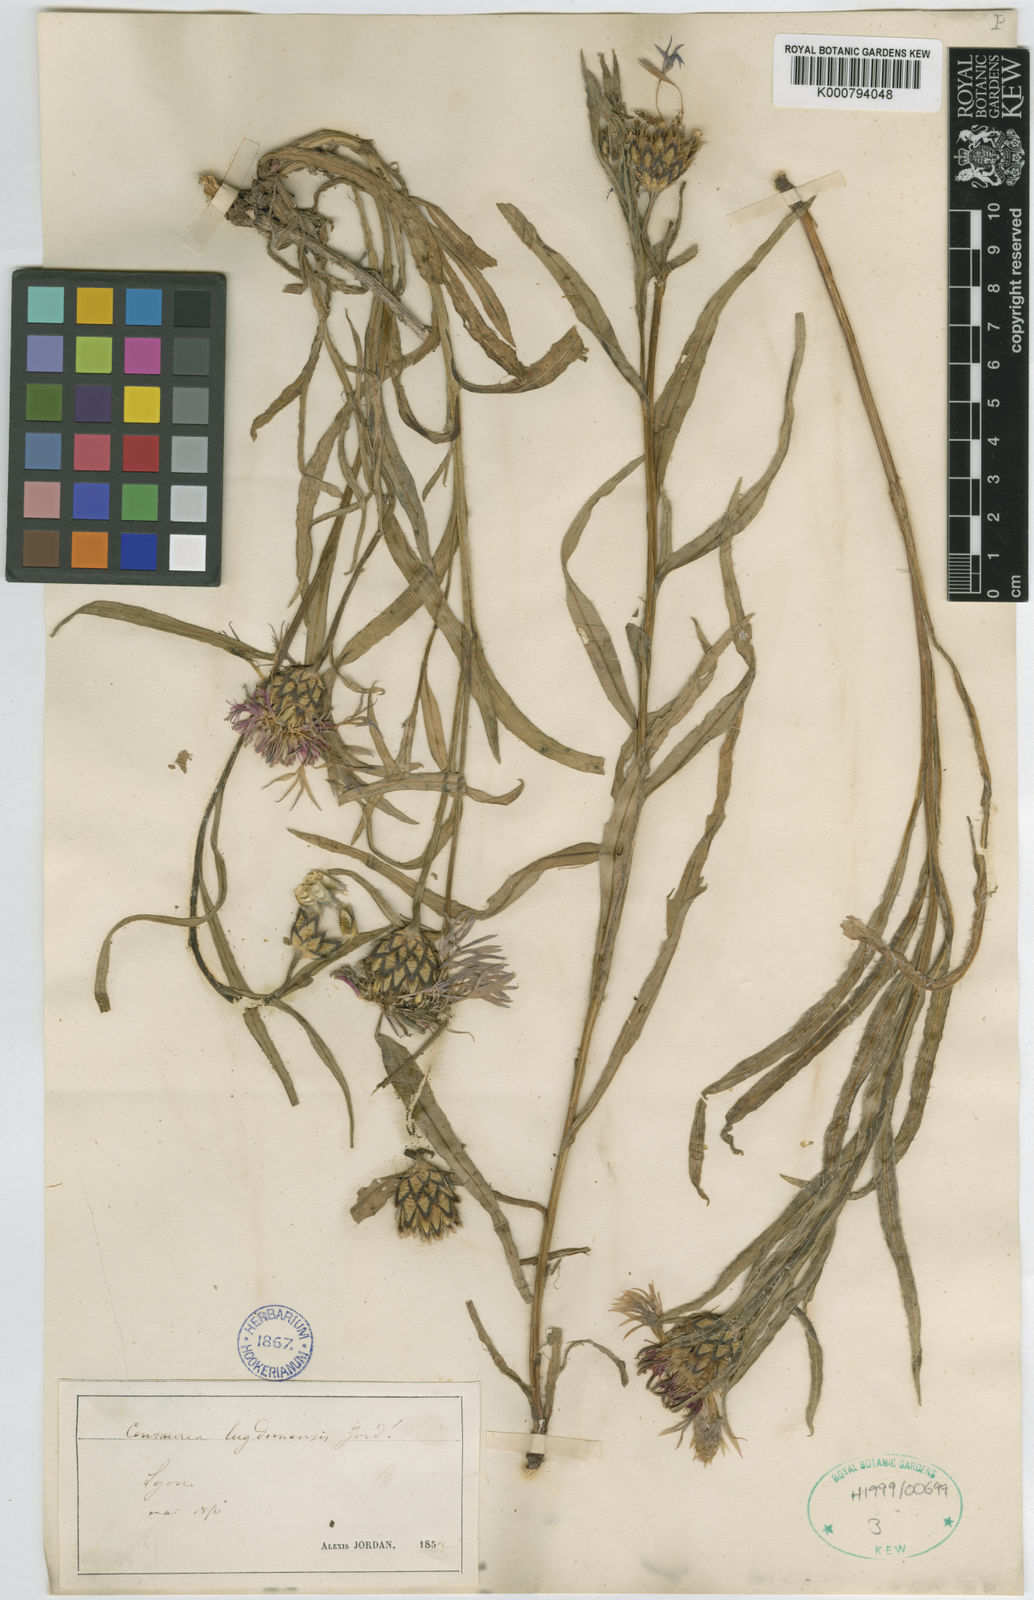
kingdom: Plantae
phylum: Tracheophyta
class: Magnoliopsida
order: Asterales
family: Asteraceae
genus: Centaurea
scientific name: Centaurea triumfettii
